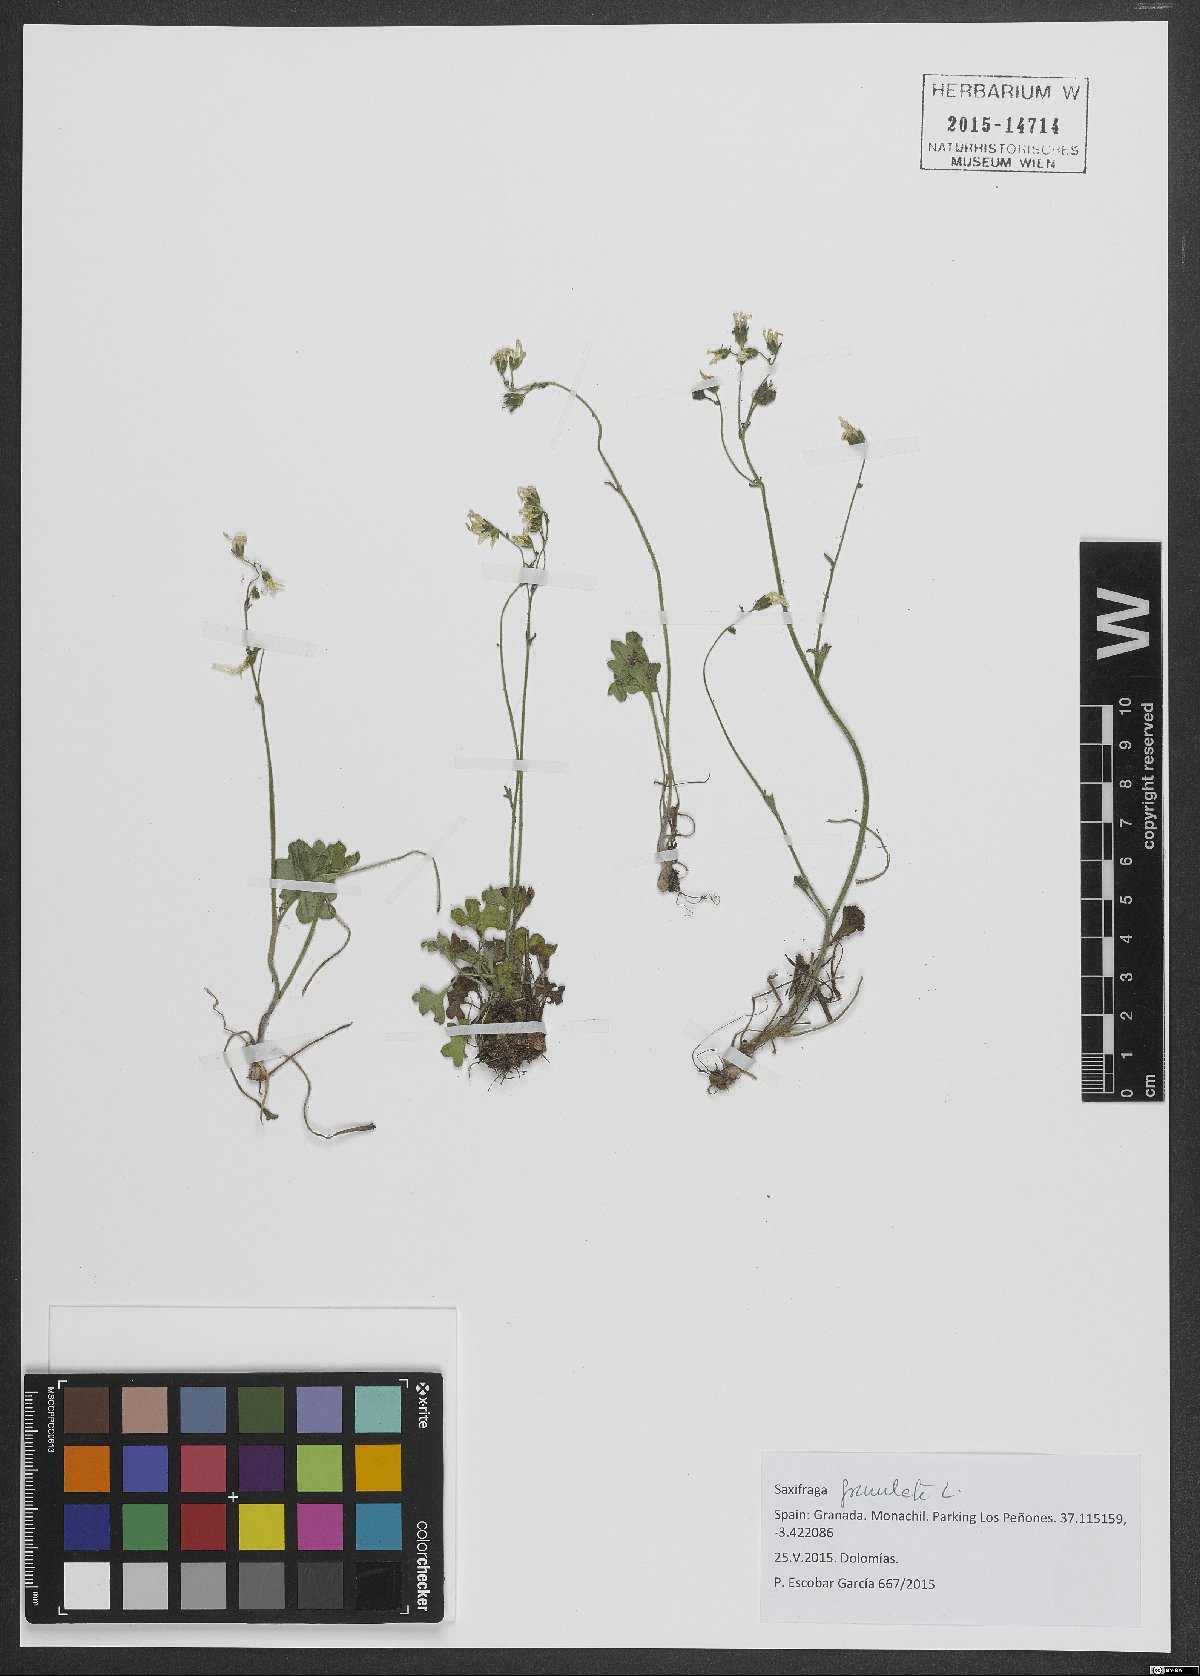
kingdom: Plantae
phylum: Tracheophyta
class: Magnoliopsida
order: Saxifragales
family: Saxifragaceae
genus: Saxifraga
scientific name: Saxifraga granulata
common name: Meadow saxifrage
